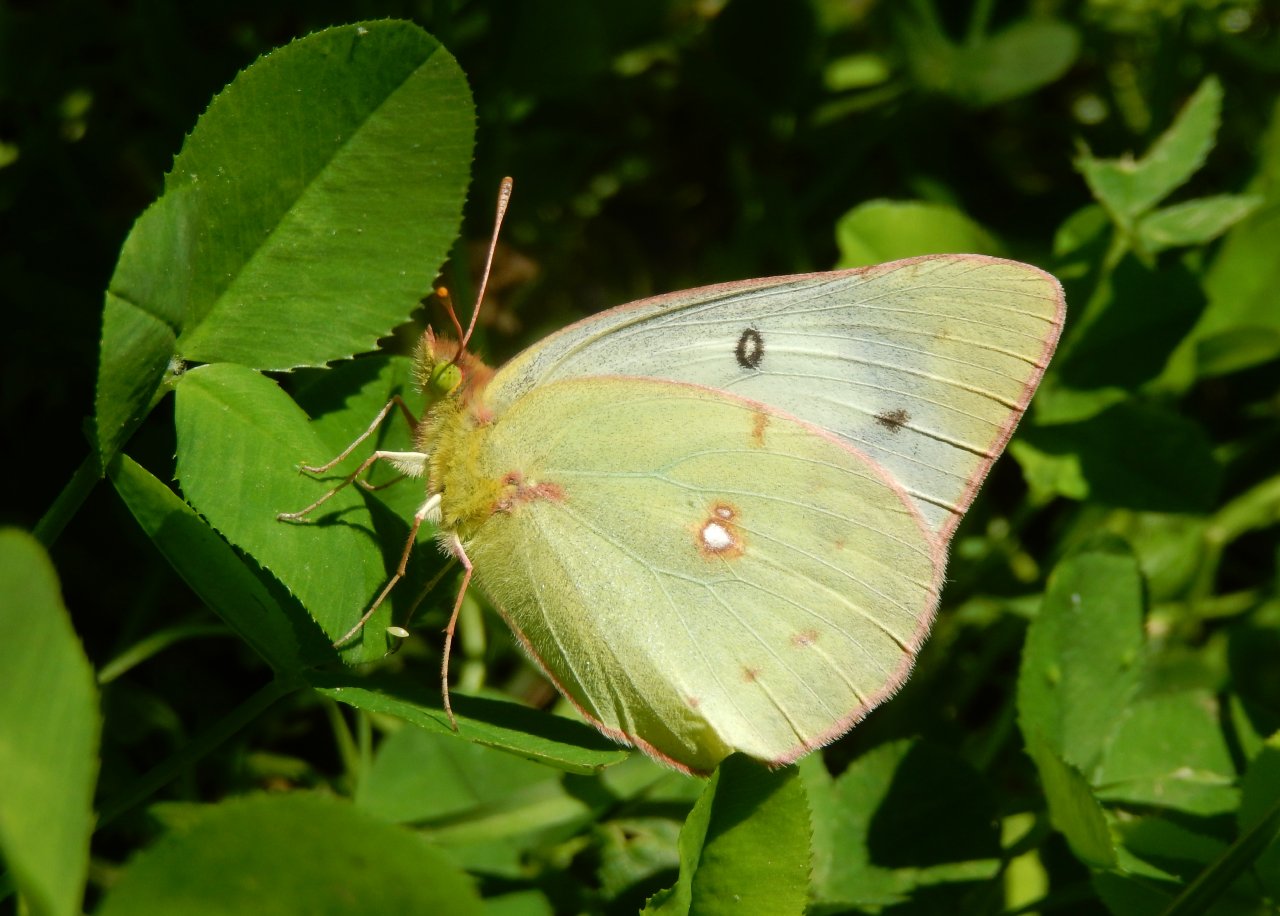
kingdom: Animalia
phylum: Arthropoda
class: Insecta
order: Lepidoptera
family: Pieridae
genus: Colias
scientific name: Colias philodice
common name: Clouded Sulphur
